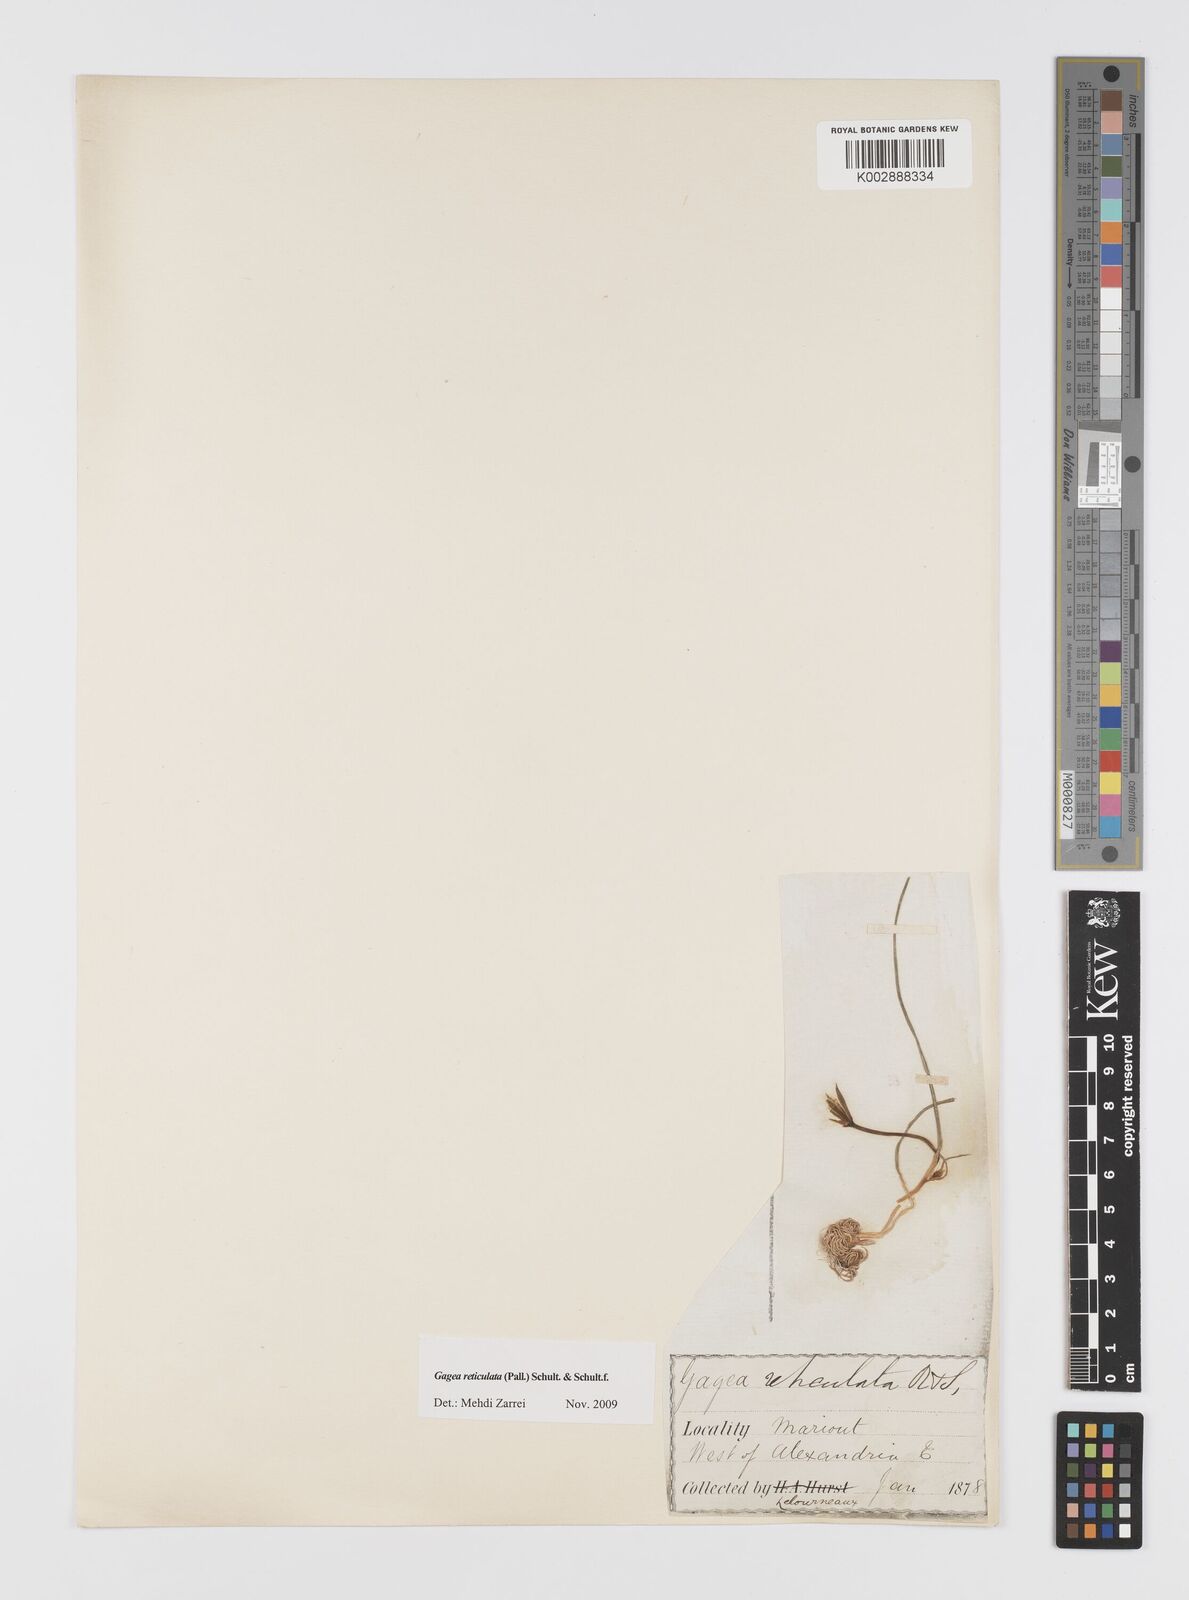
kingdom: Plantae
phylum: Tracheophyta
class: Liliopsida
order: Liliales
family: Liliaceae
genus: Gagea
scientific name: Gagea
